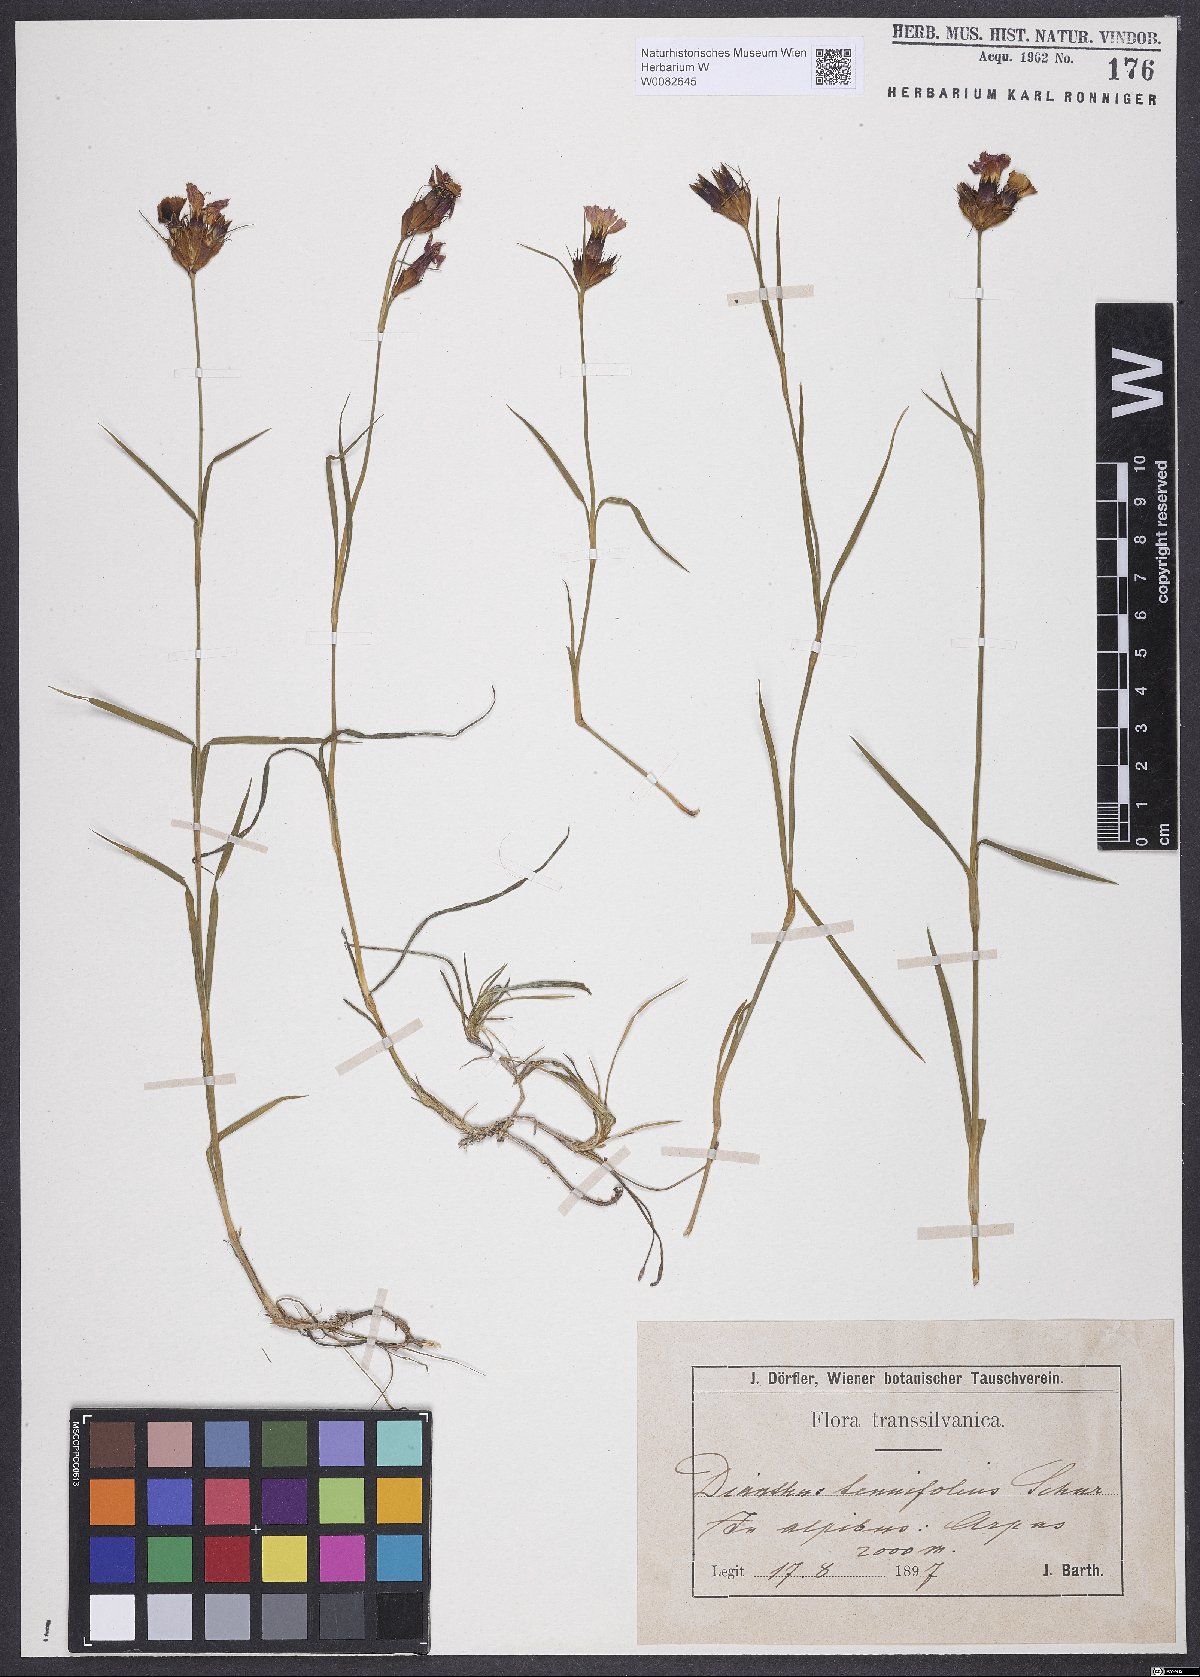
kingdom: Plantae
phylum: Tracheophyta
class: Magnoliopsida
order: Caryophyllales
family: Caryophyllaceae
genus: Dianthus
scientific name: Dianthus carthusianorum
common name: Carthusian pink
